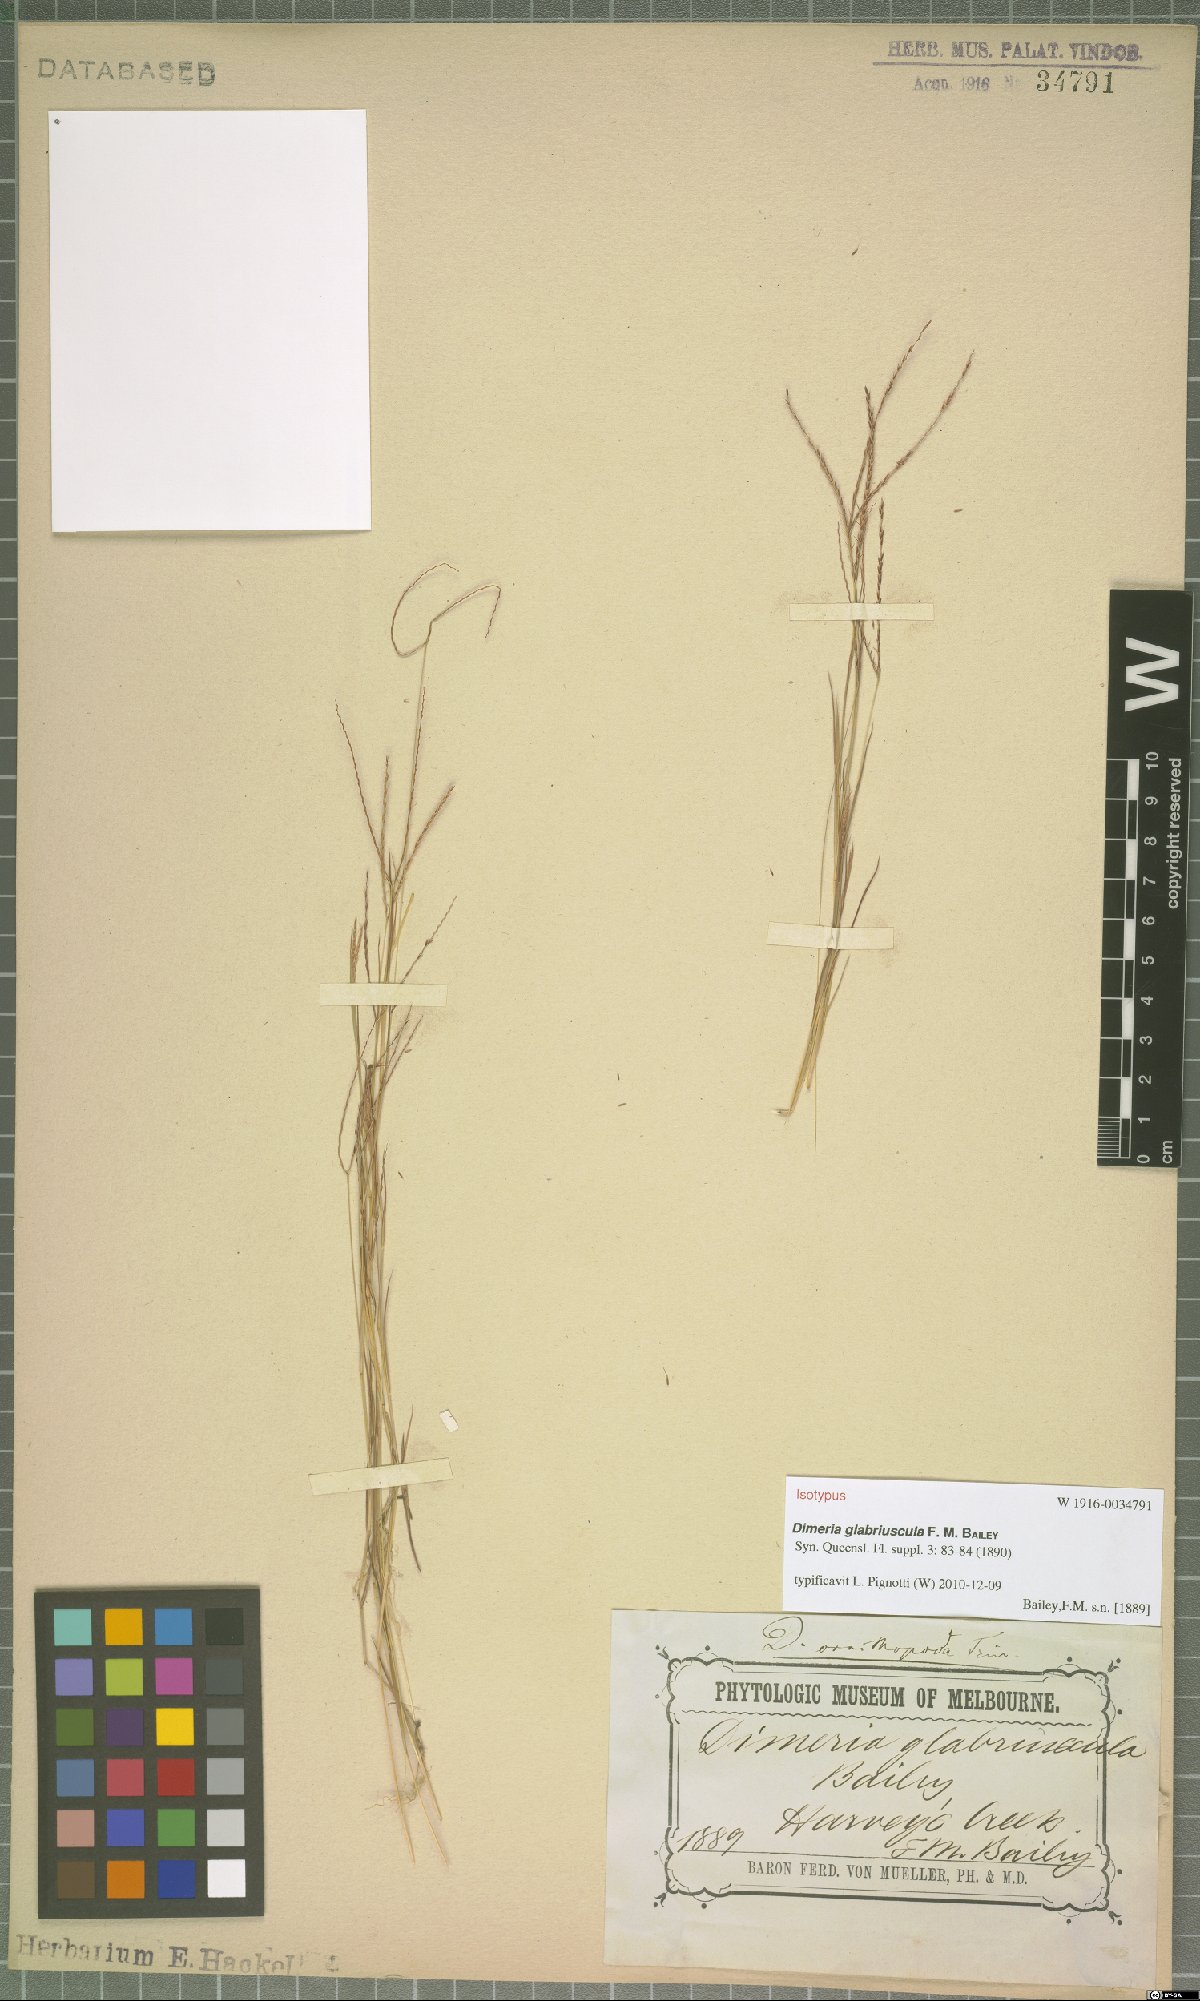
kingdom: Plantae
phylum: Tracheophyta
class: Liliopsida
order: Poales
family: Poaceae
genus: Dimeria
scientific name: Dimeria ornithopoda
